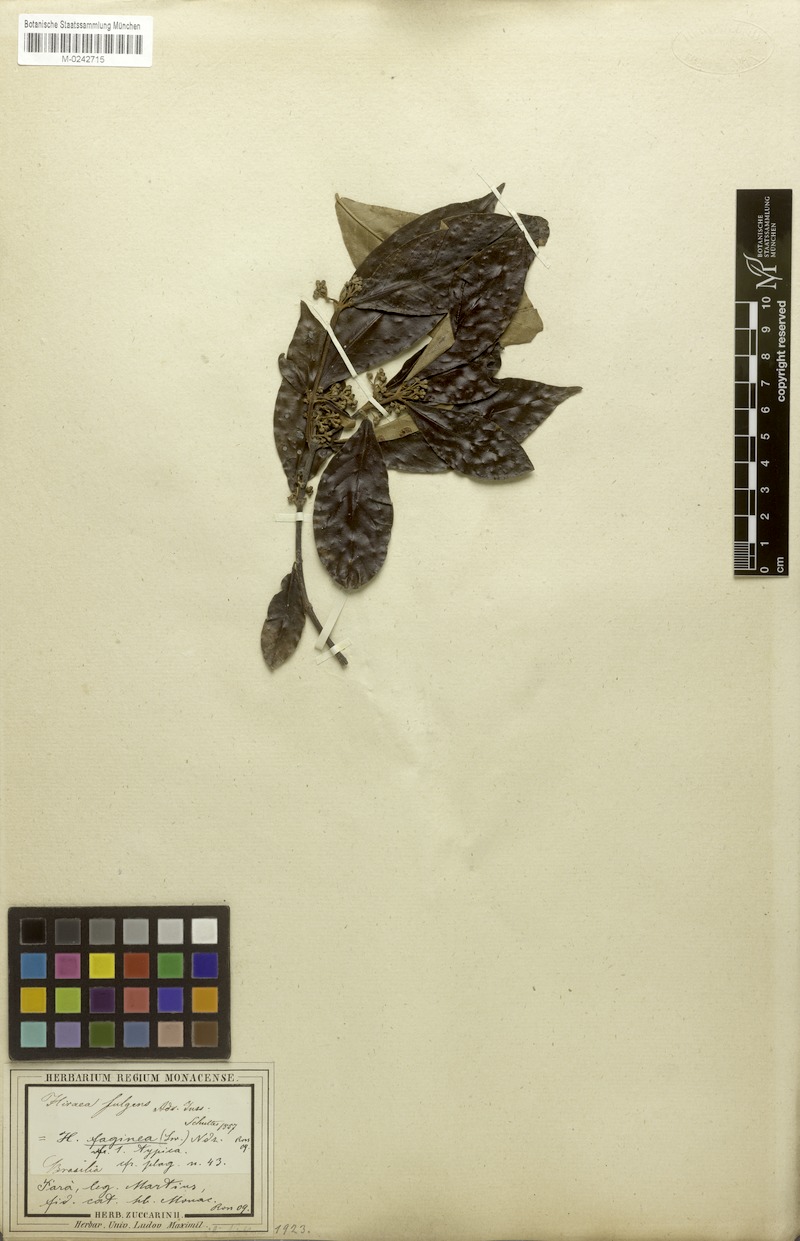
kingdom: Plantae
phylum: Tracheophyta
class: Magnoliopsida
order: Malpighiales
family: Malpighiaceae
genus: Hiraea
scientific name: Hiraea faginea
